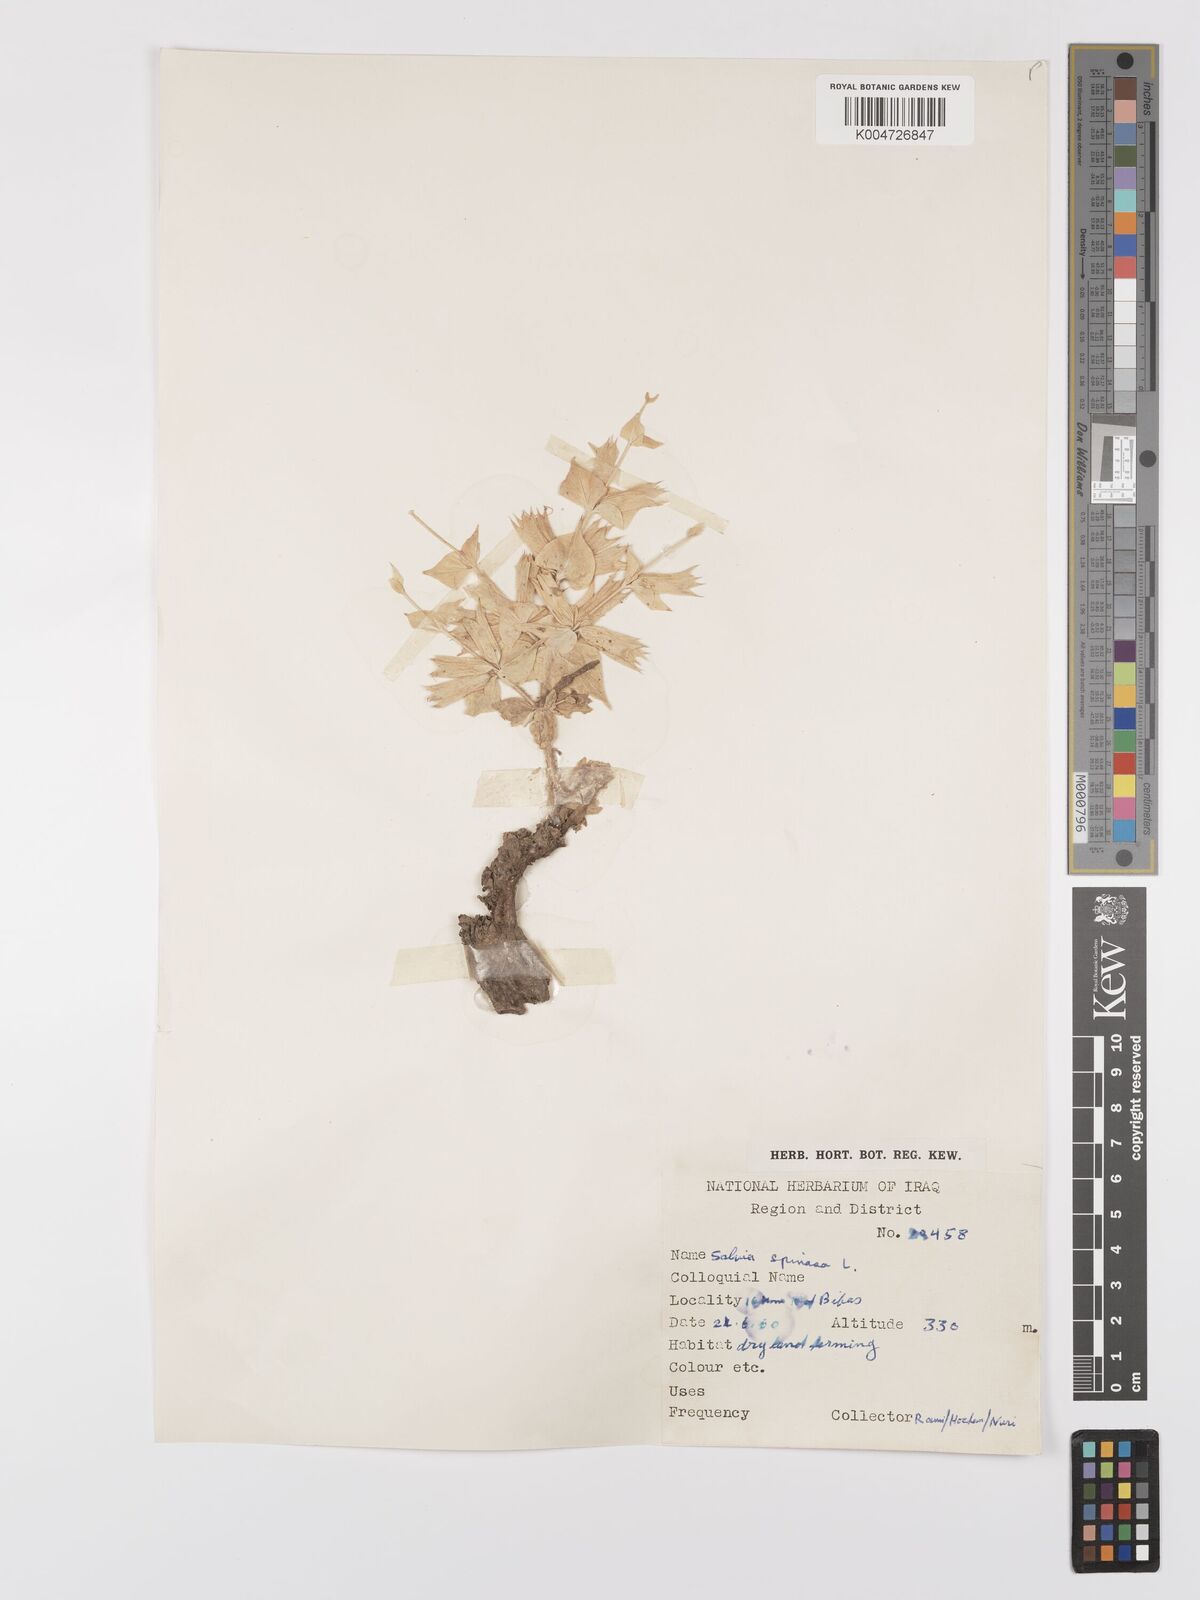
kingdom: Plantae
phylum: Tracheophyta
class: Magnoliopsida
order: Lamiales
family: Lamiaceae
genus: Salvia
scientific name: Salvia
